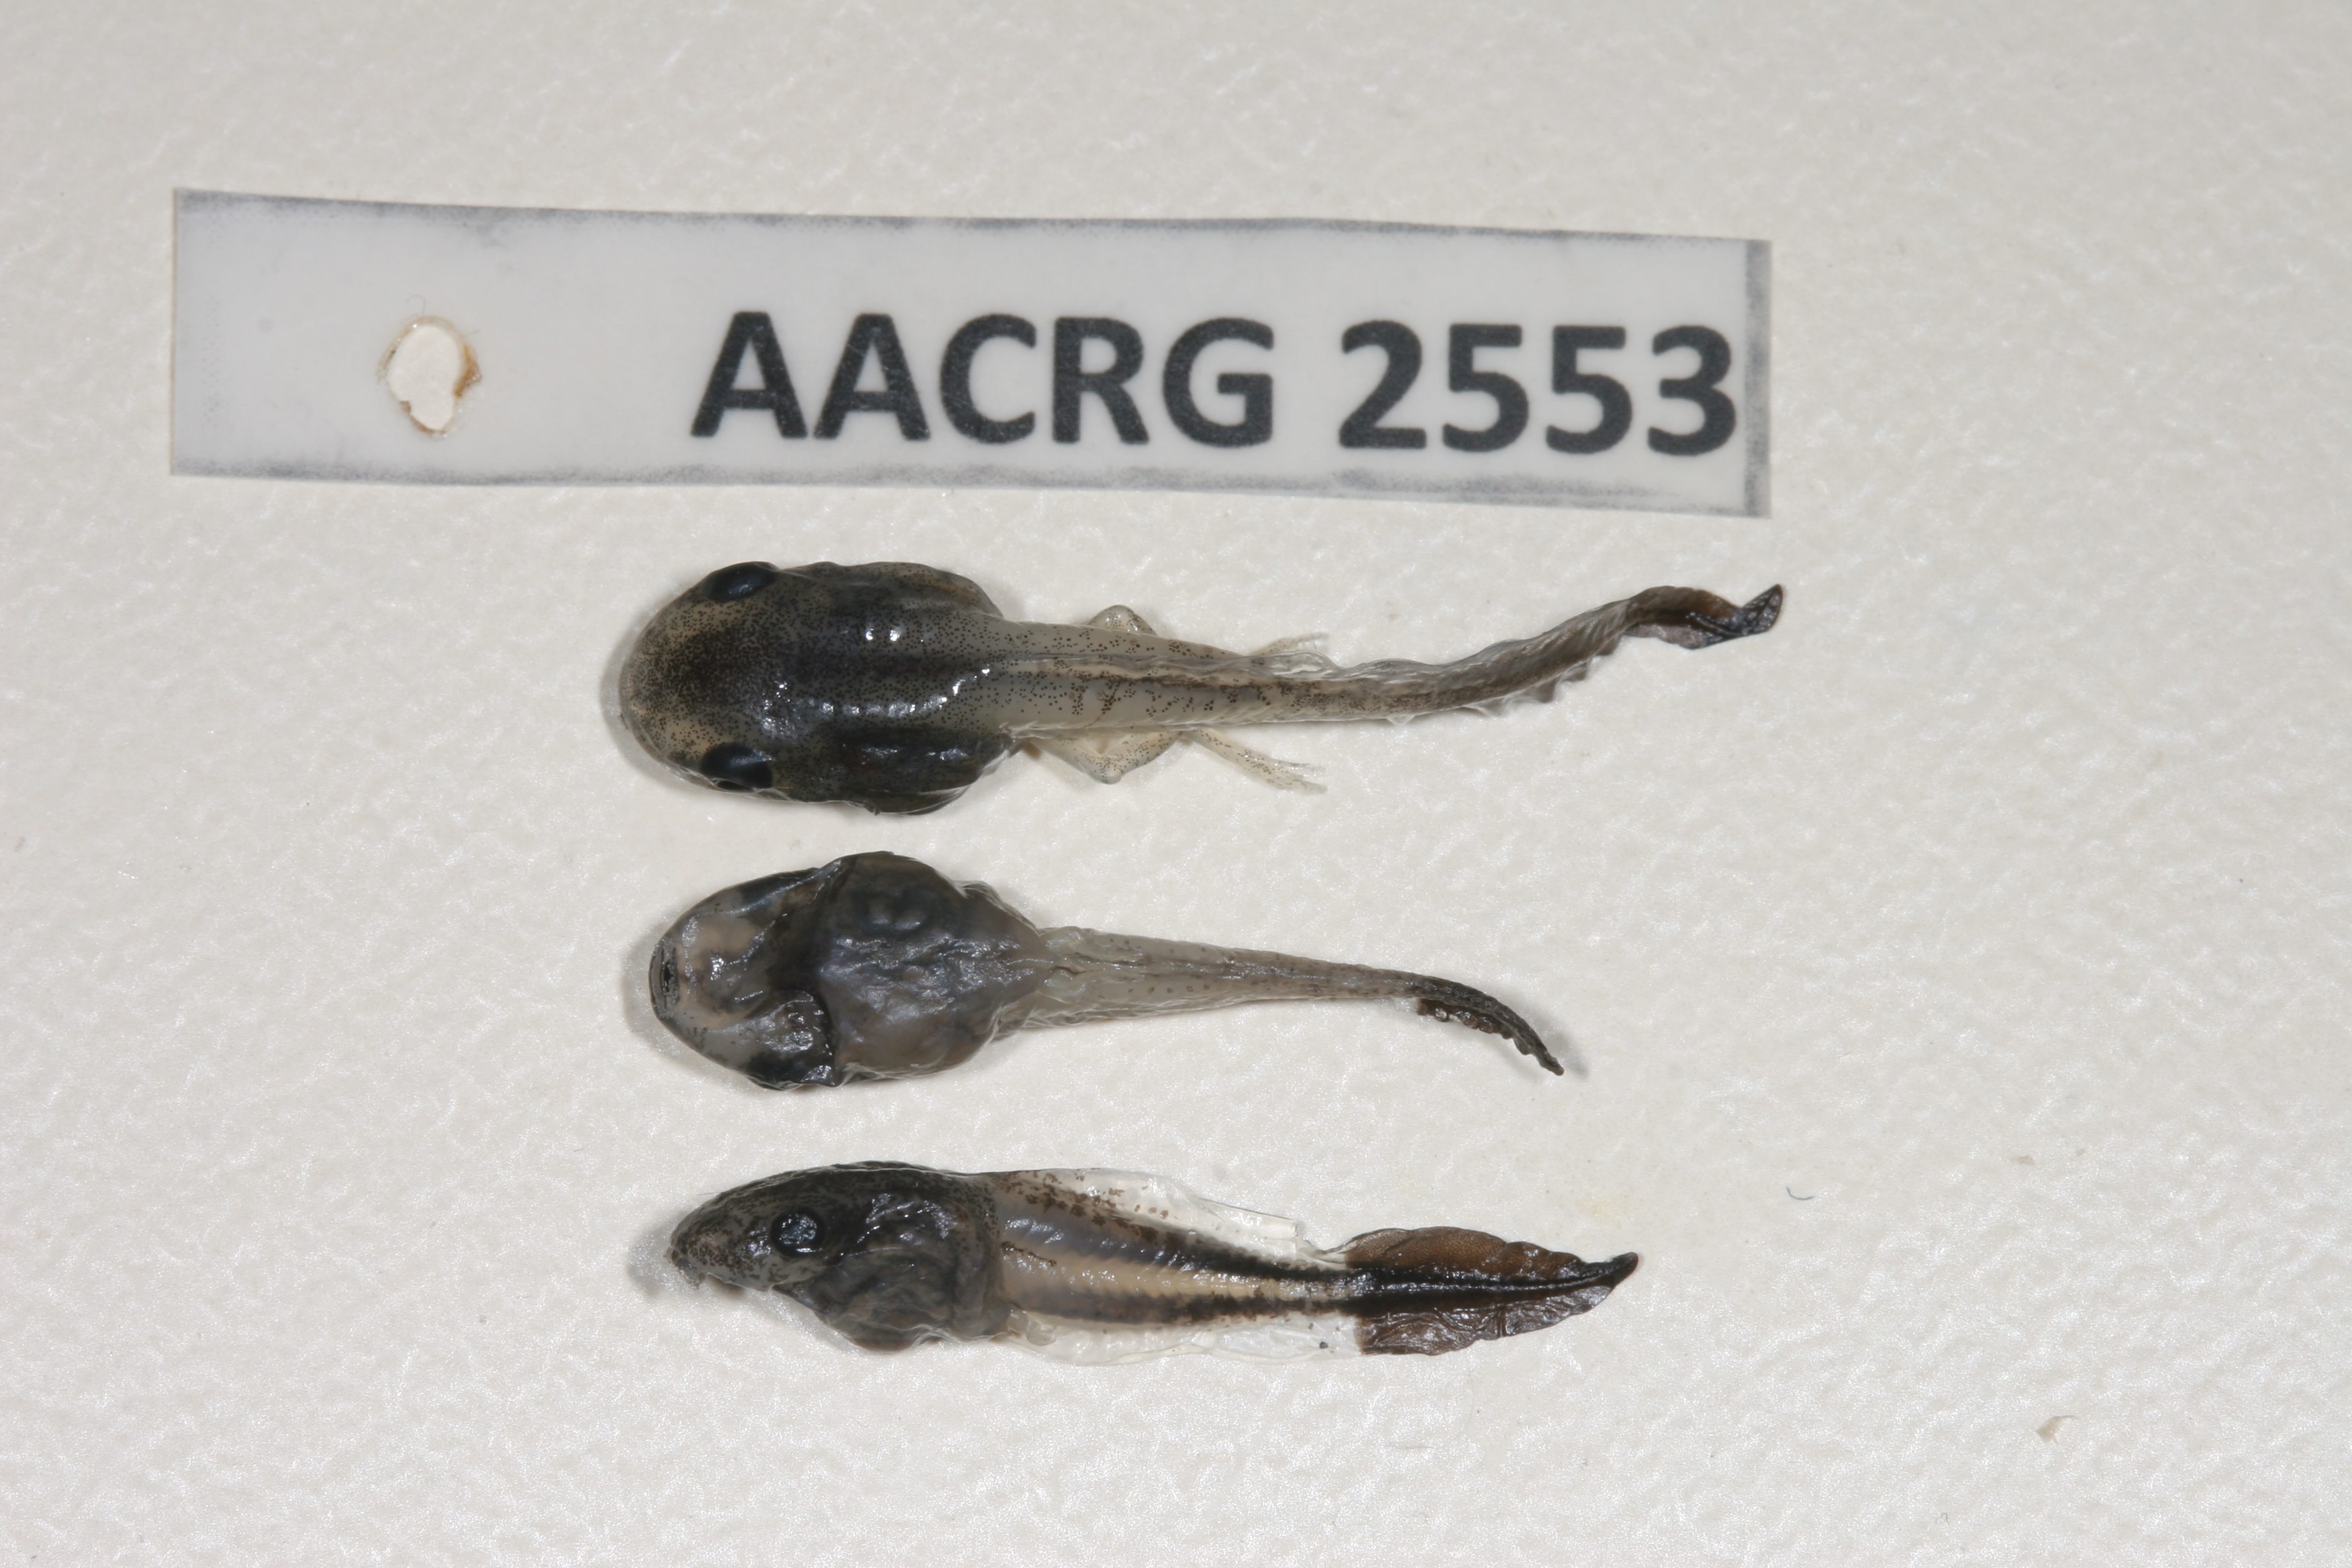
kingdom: Animalia
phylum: Chordata
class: Amphibia
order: Anura
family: Hyperoliidae
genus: Hyperolius
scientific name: Hyperolius pusillus
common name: Water lily reed frog
